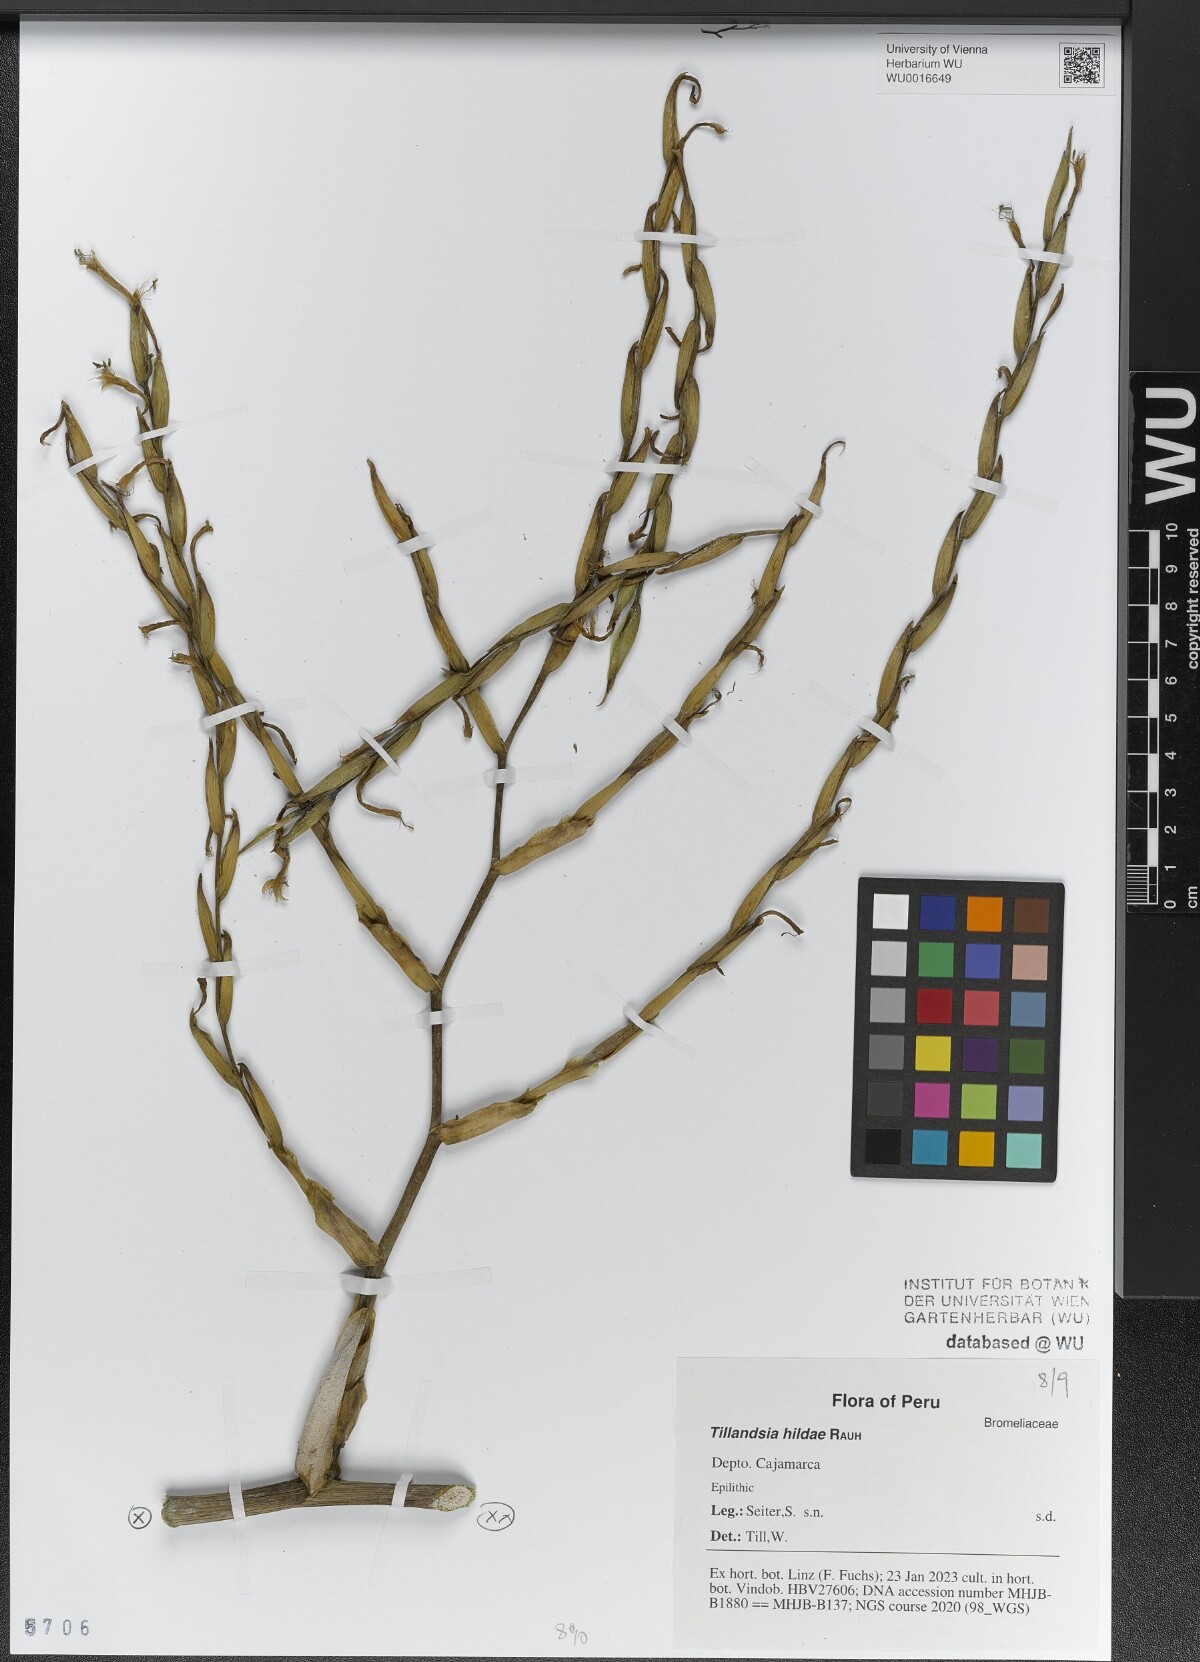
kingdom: Plantae
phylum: Tracheophyta
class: Liliopsida
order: Poales
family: Bromeliaceae
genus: Tillandsia
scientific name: Tillandsia hildae
